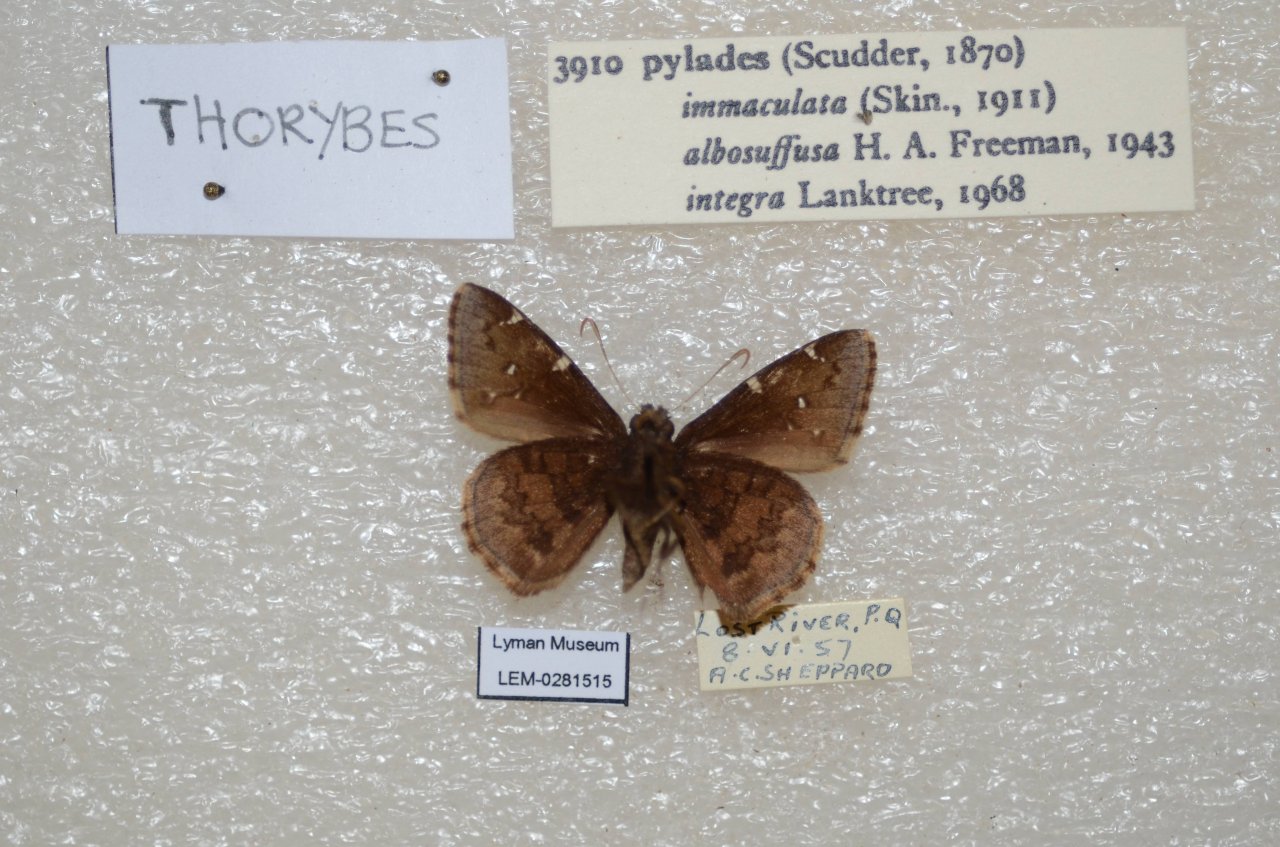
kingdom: Animalia
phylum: Arthropoda
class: Insecta
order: Lepidoptera
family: Hesperiidae
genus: Autochton
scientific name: Autochton
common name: Northern Cloudywing
